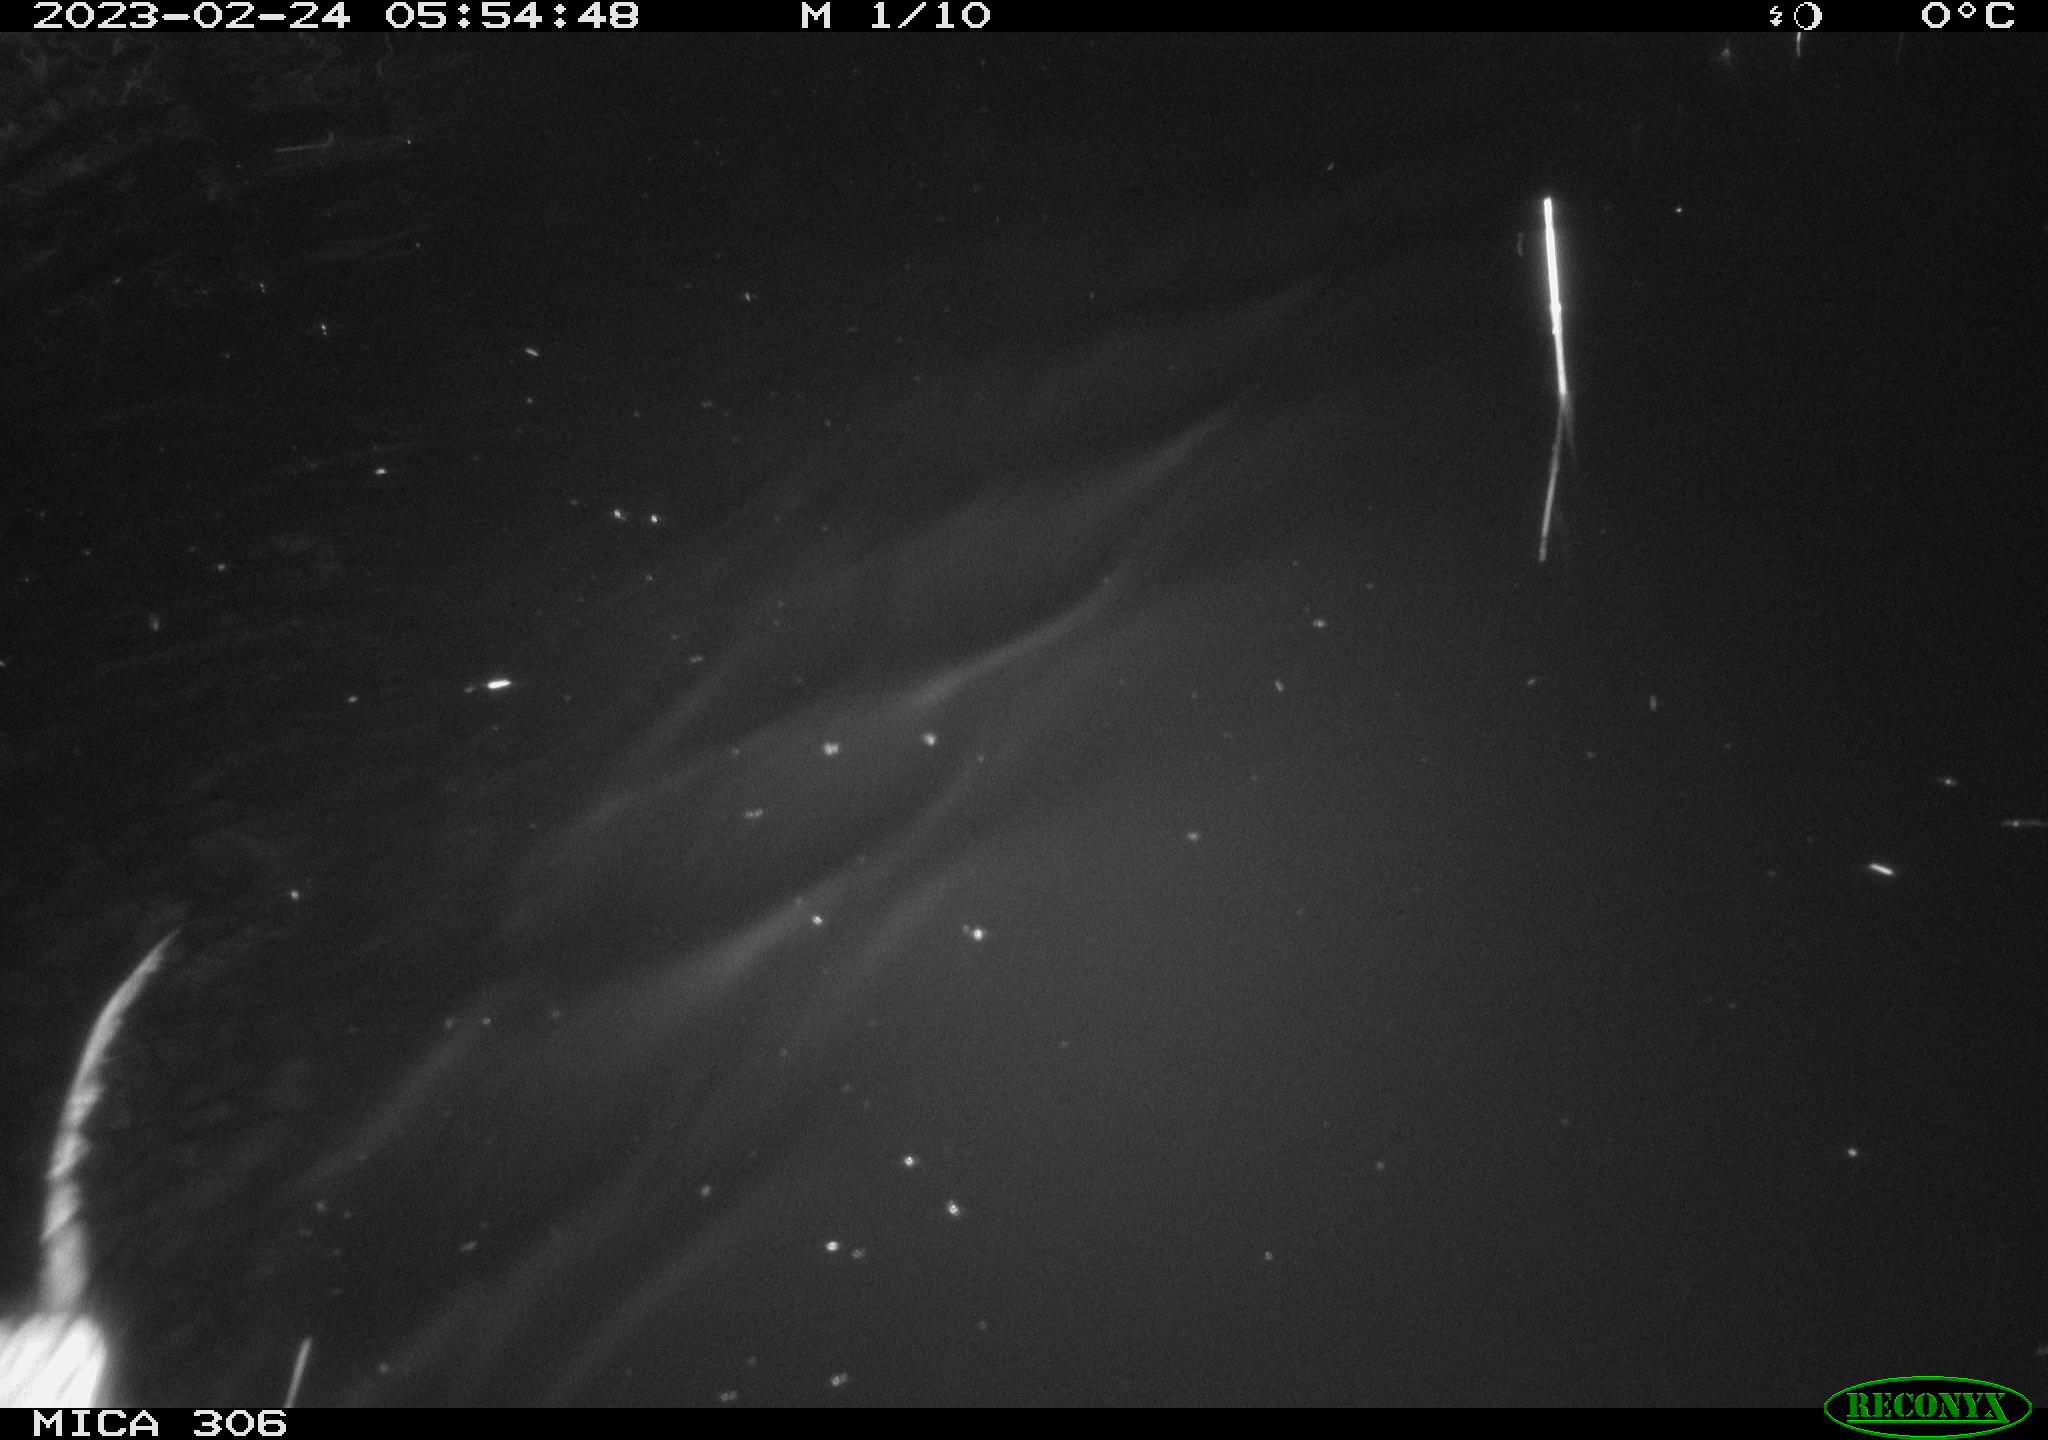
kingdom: Animalia
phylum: Chordata
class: Mammalia
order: Rodentia
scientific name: Rodentia
